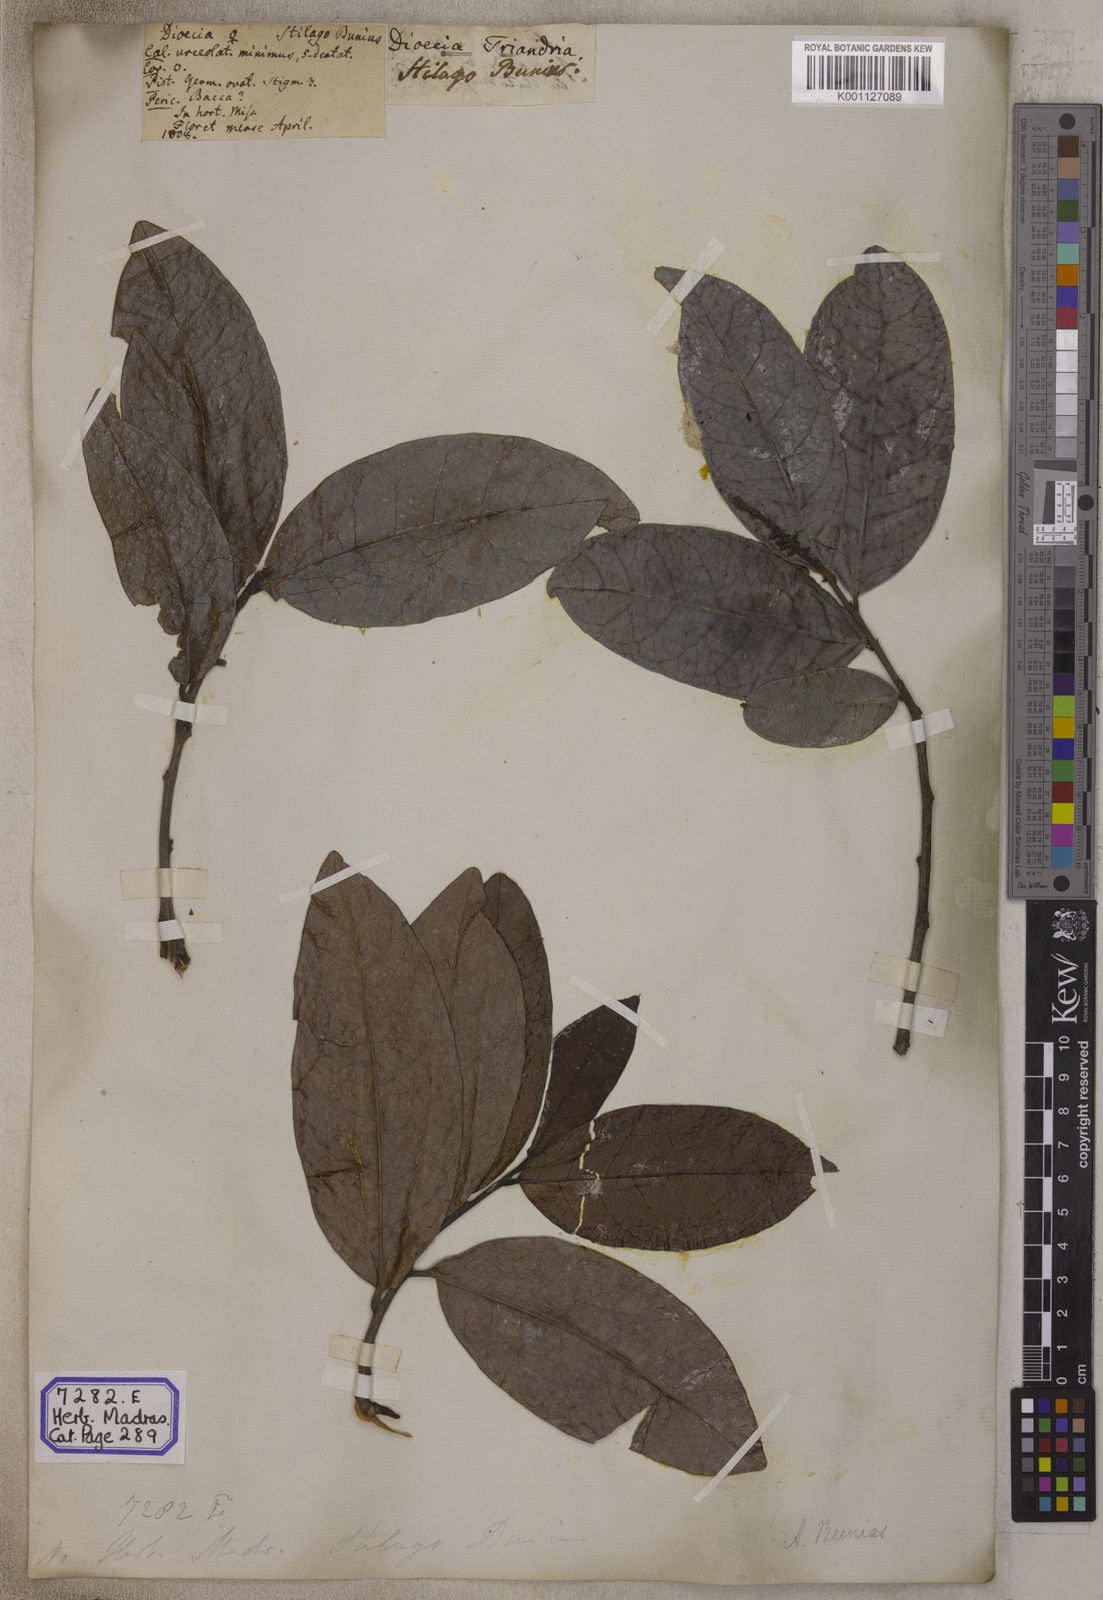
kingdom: Plantae
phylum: Tracheophyta
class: Magnoliopsida
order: Malpighiales
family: Phyllanthaceae
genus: Antidesma
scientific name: Antidesma nigricans
